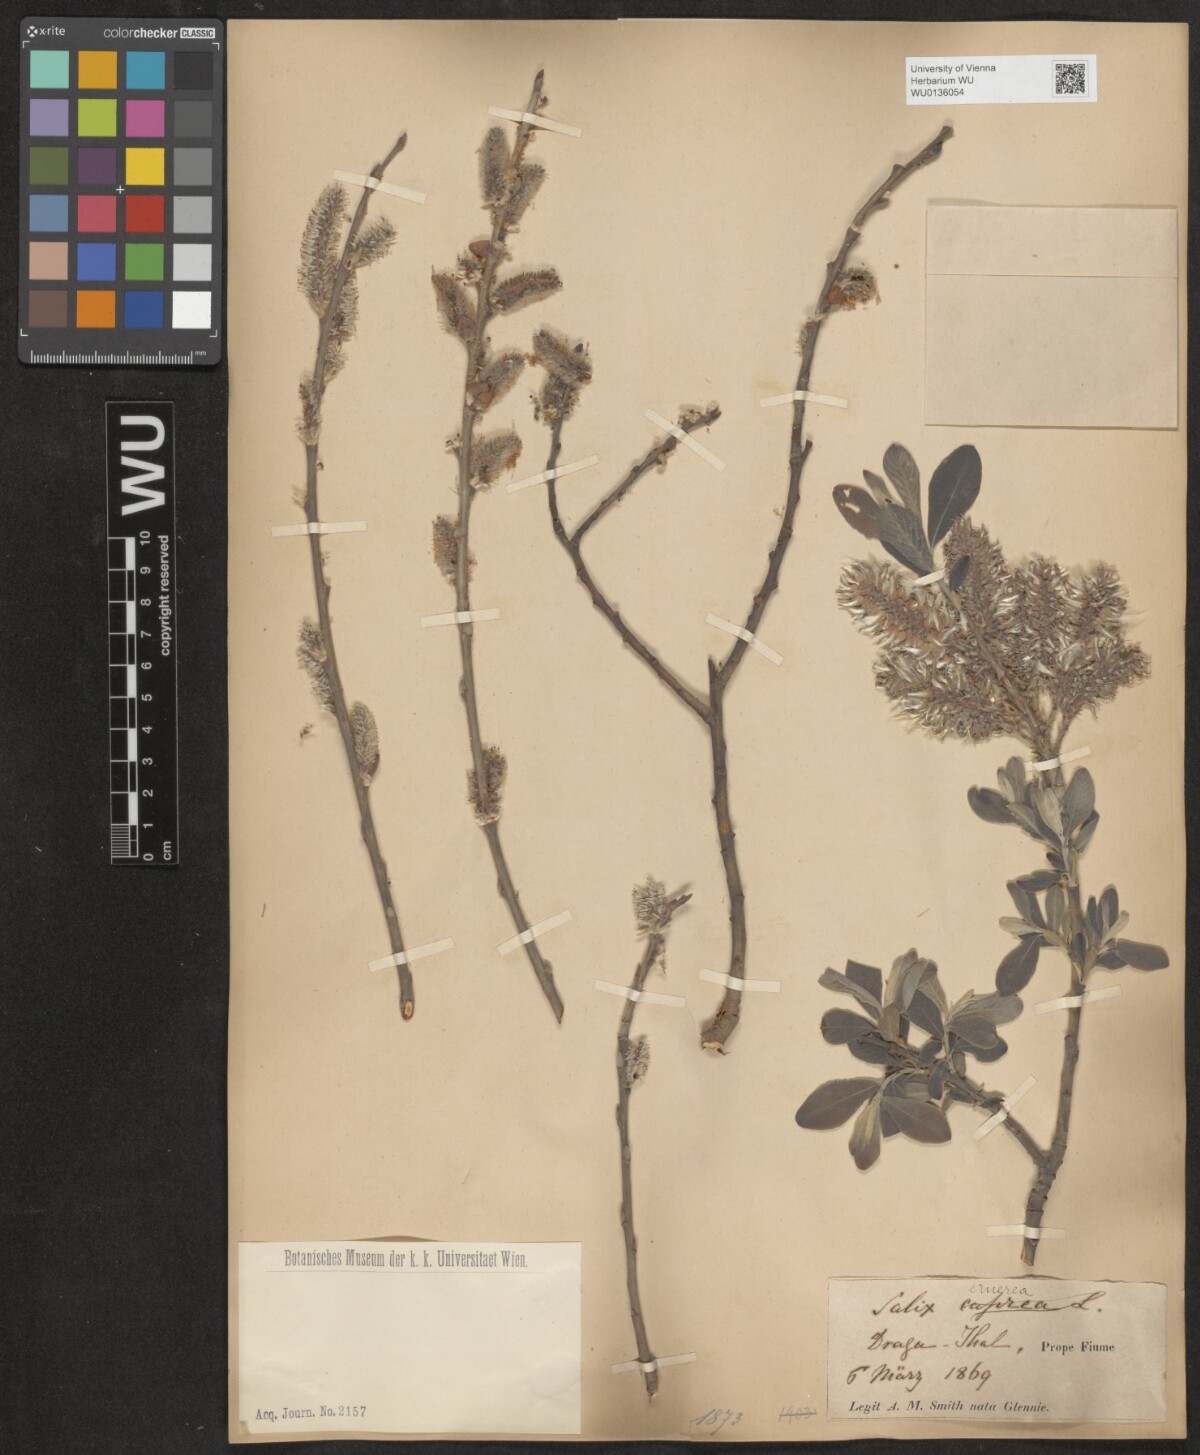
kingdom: Plantae
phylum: Tracheophyta
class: Magnoliopsida
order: Malpighiales
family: Salicaceae
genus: Salix
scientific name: Salix cinerea
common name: Common sallow
